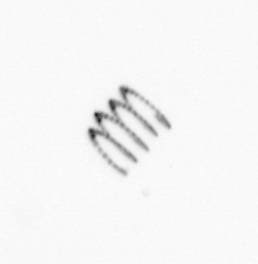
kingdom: Chromista
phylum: Ochrophyta
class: Bacillariophyceae
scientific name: Bacillariophyceae
